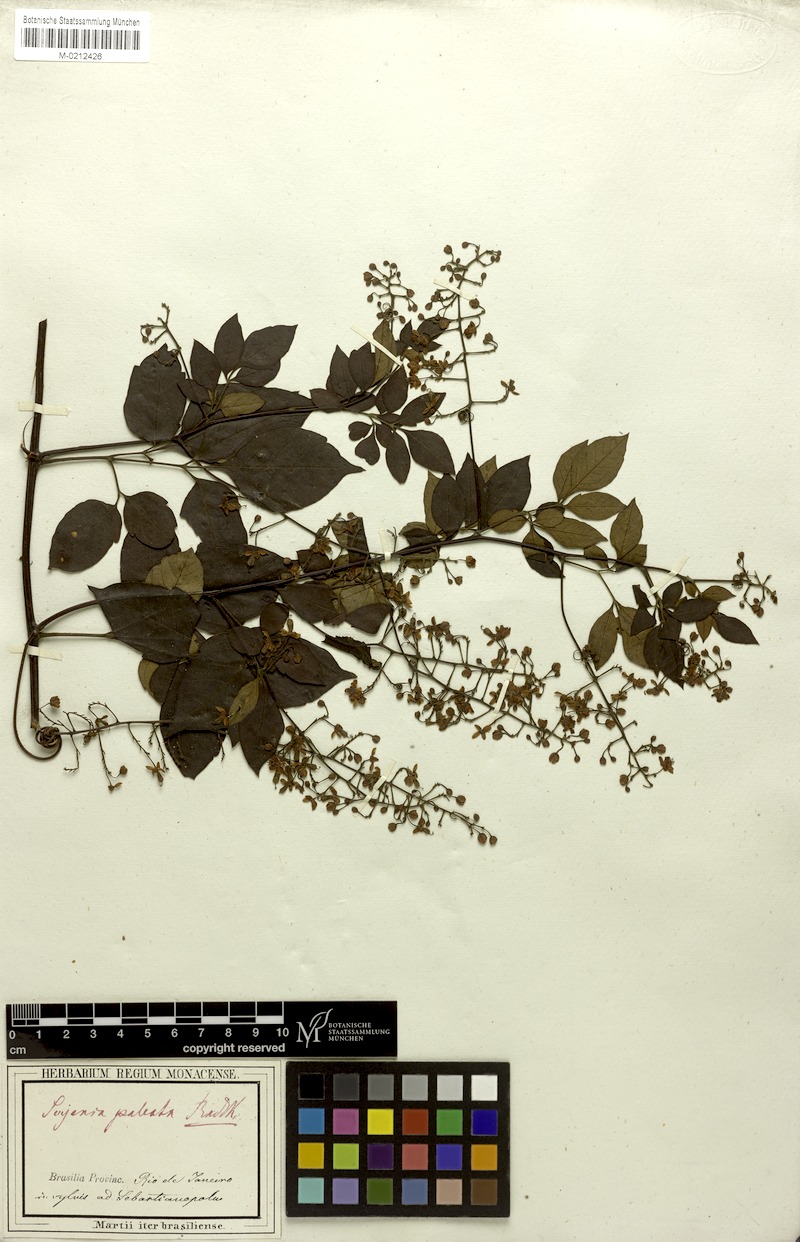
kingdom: Plantae
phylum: Tracheophyta
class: Magnoliopsida
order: Sapindales
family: Sapindaceae
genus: Serjania
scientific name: Serjania paleata
